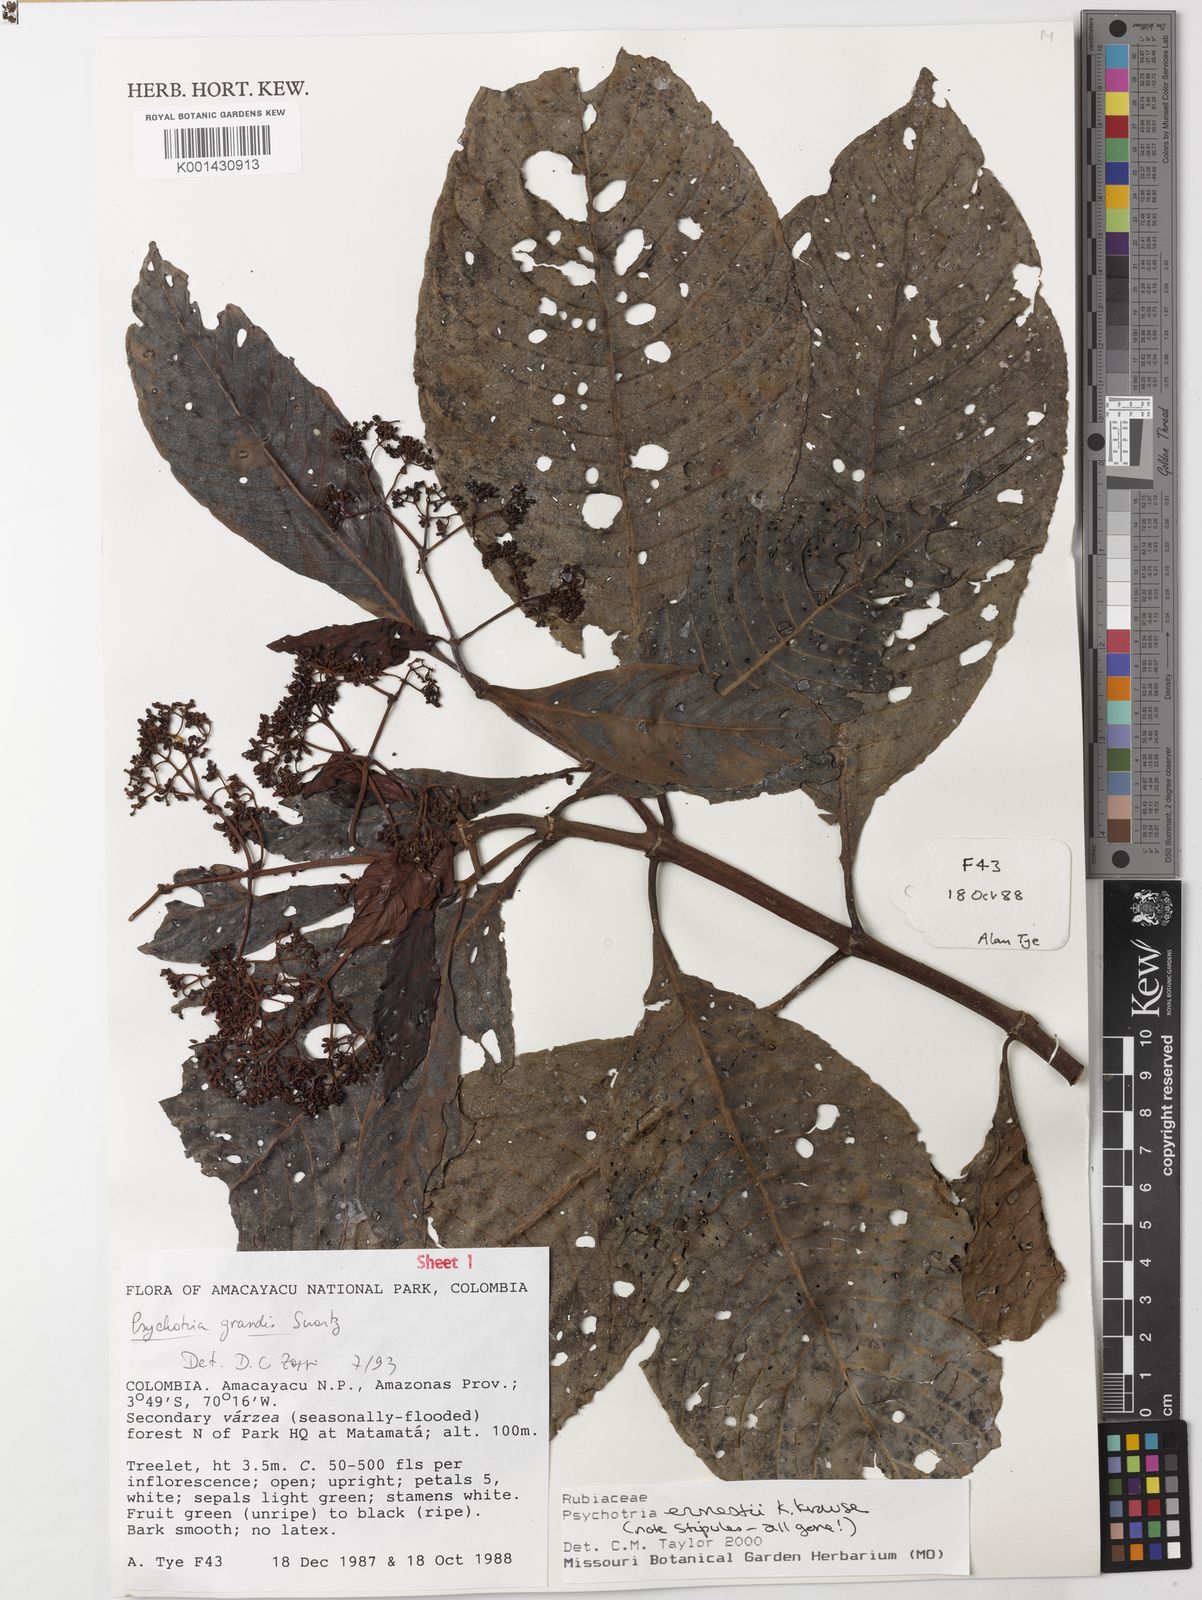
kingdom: Plantae
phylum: Tracheophyta
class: Magnoliopsida
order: Gentianales
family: Rubiaceae
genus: Psychotria
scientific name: Psychotria guianensis
